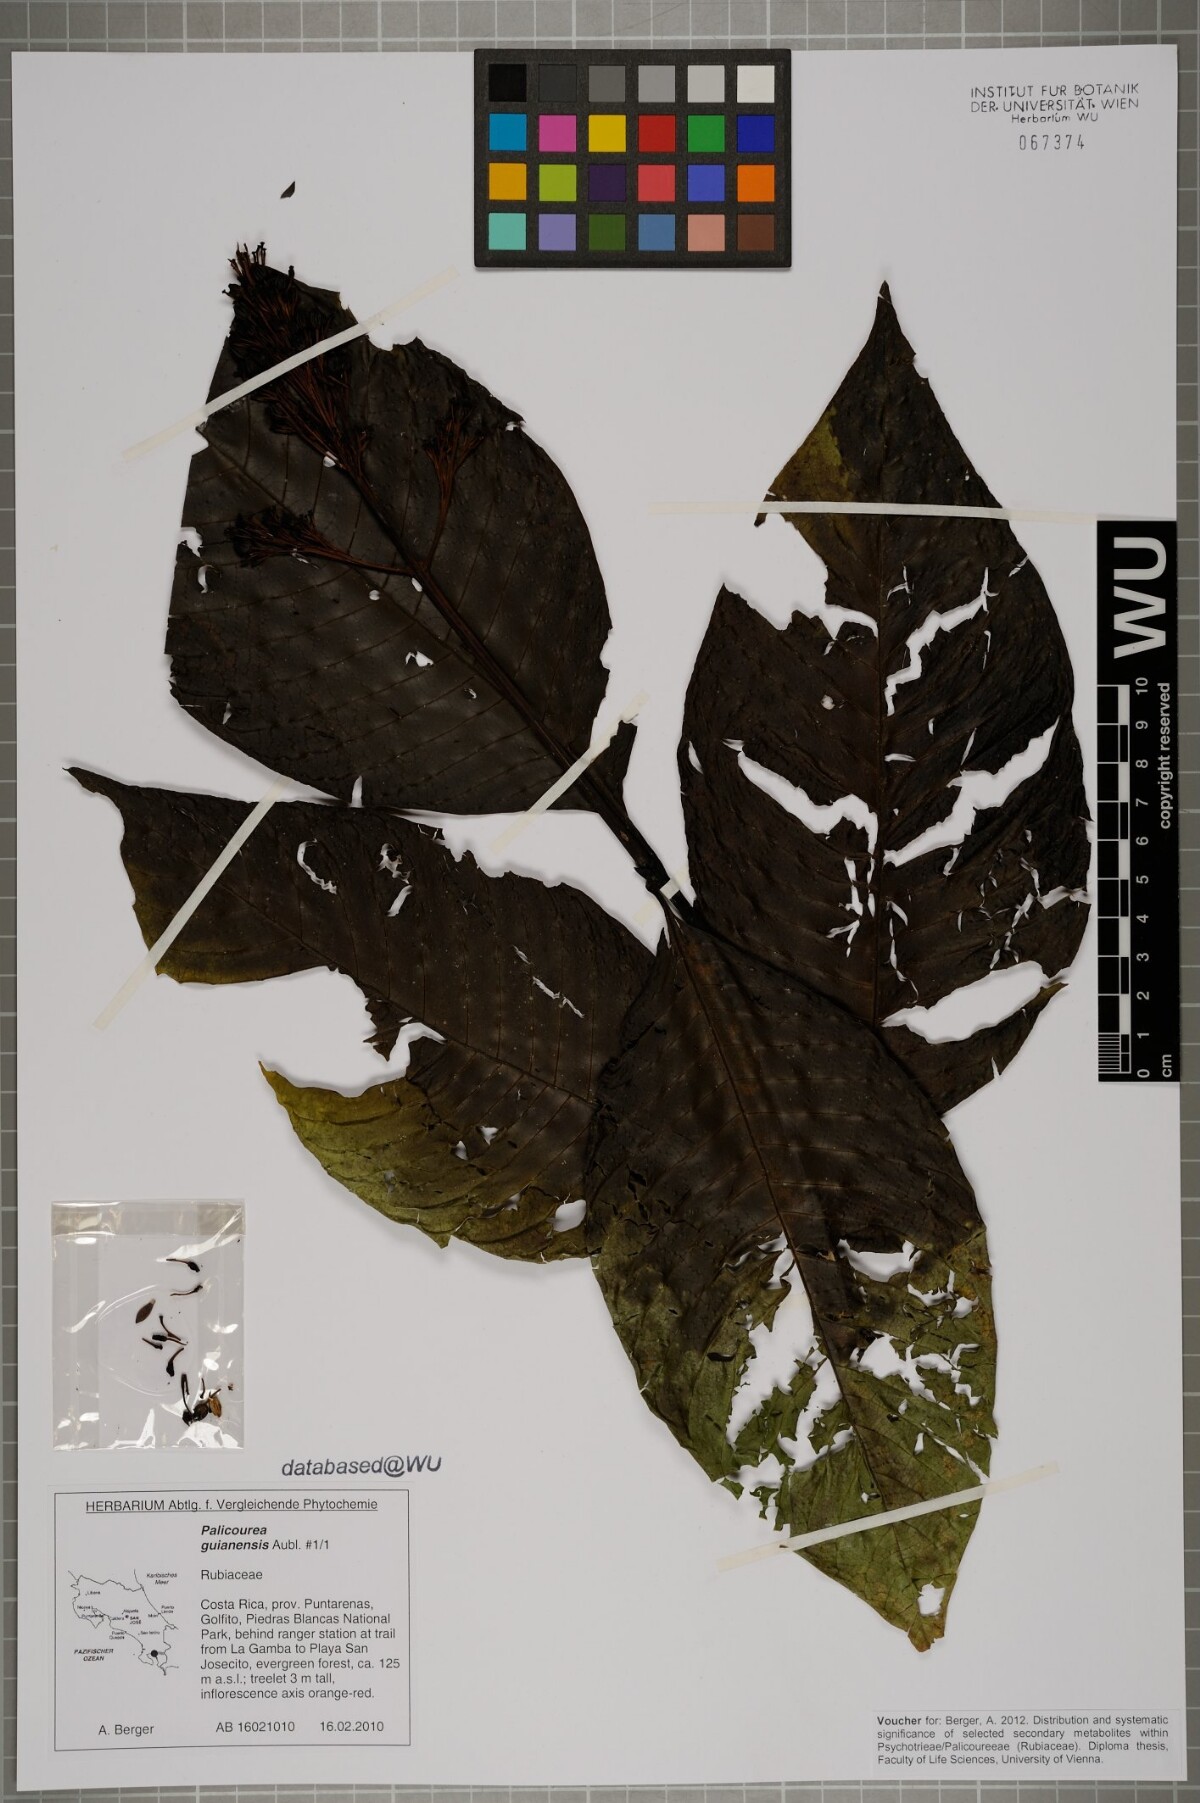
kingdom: Plantae
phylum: Tracheophyta
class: Magnoliopsida
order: Gentianales
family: Rubiaceae
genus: Palicourea
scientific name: Palicourea guianensis
